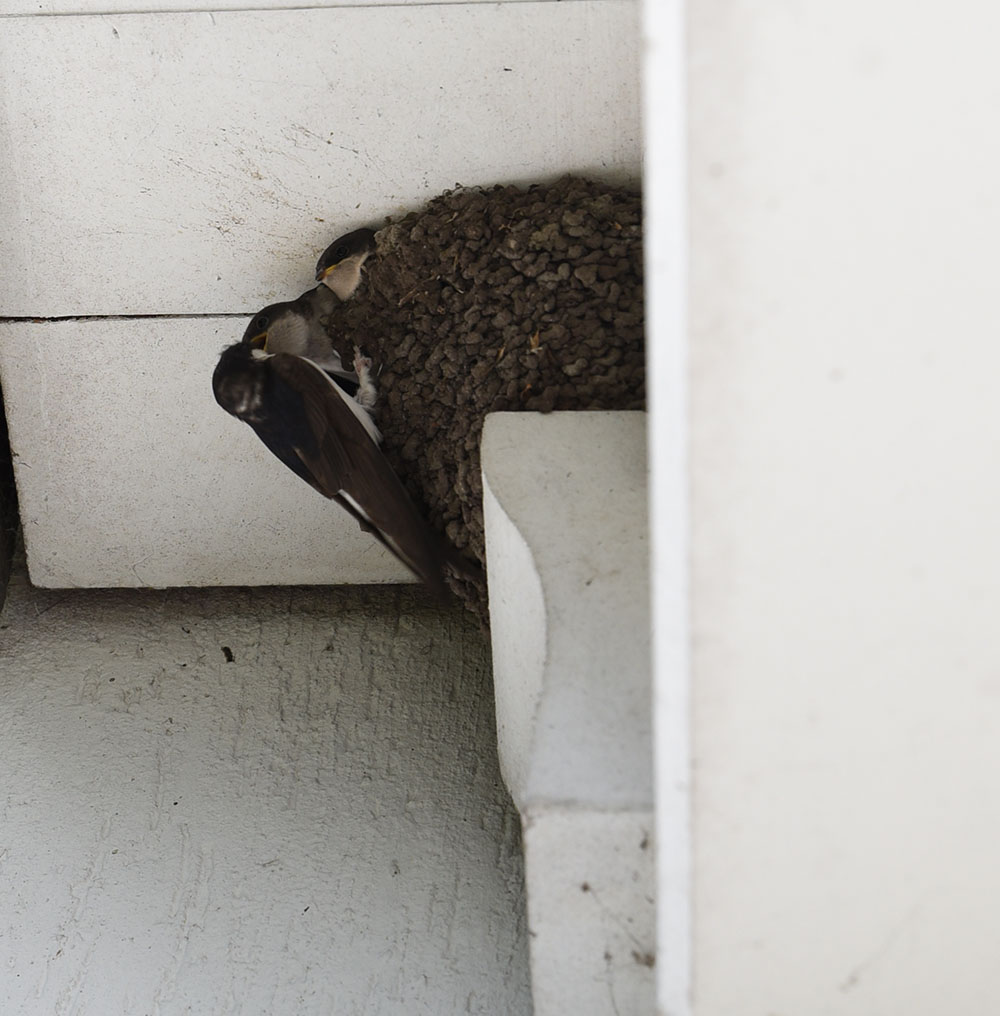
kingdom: Animalia
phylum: Chordata
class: Aves
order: Passeriformes
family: Hirundinidae
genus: Hirundo
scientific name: Hirundo rustica
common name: Barn swallow
